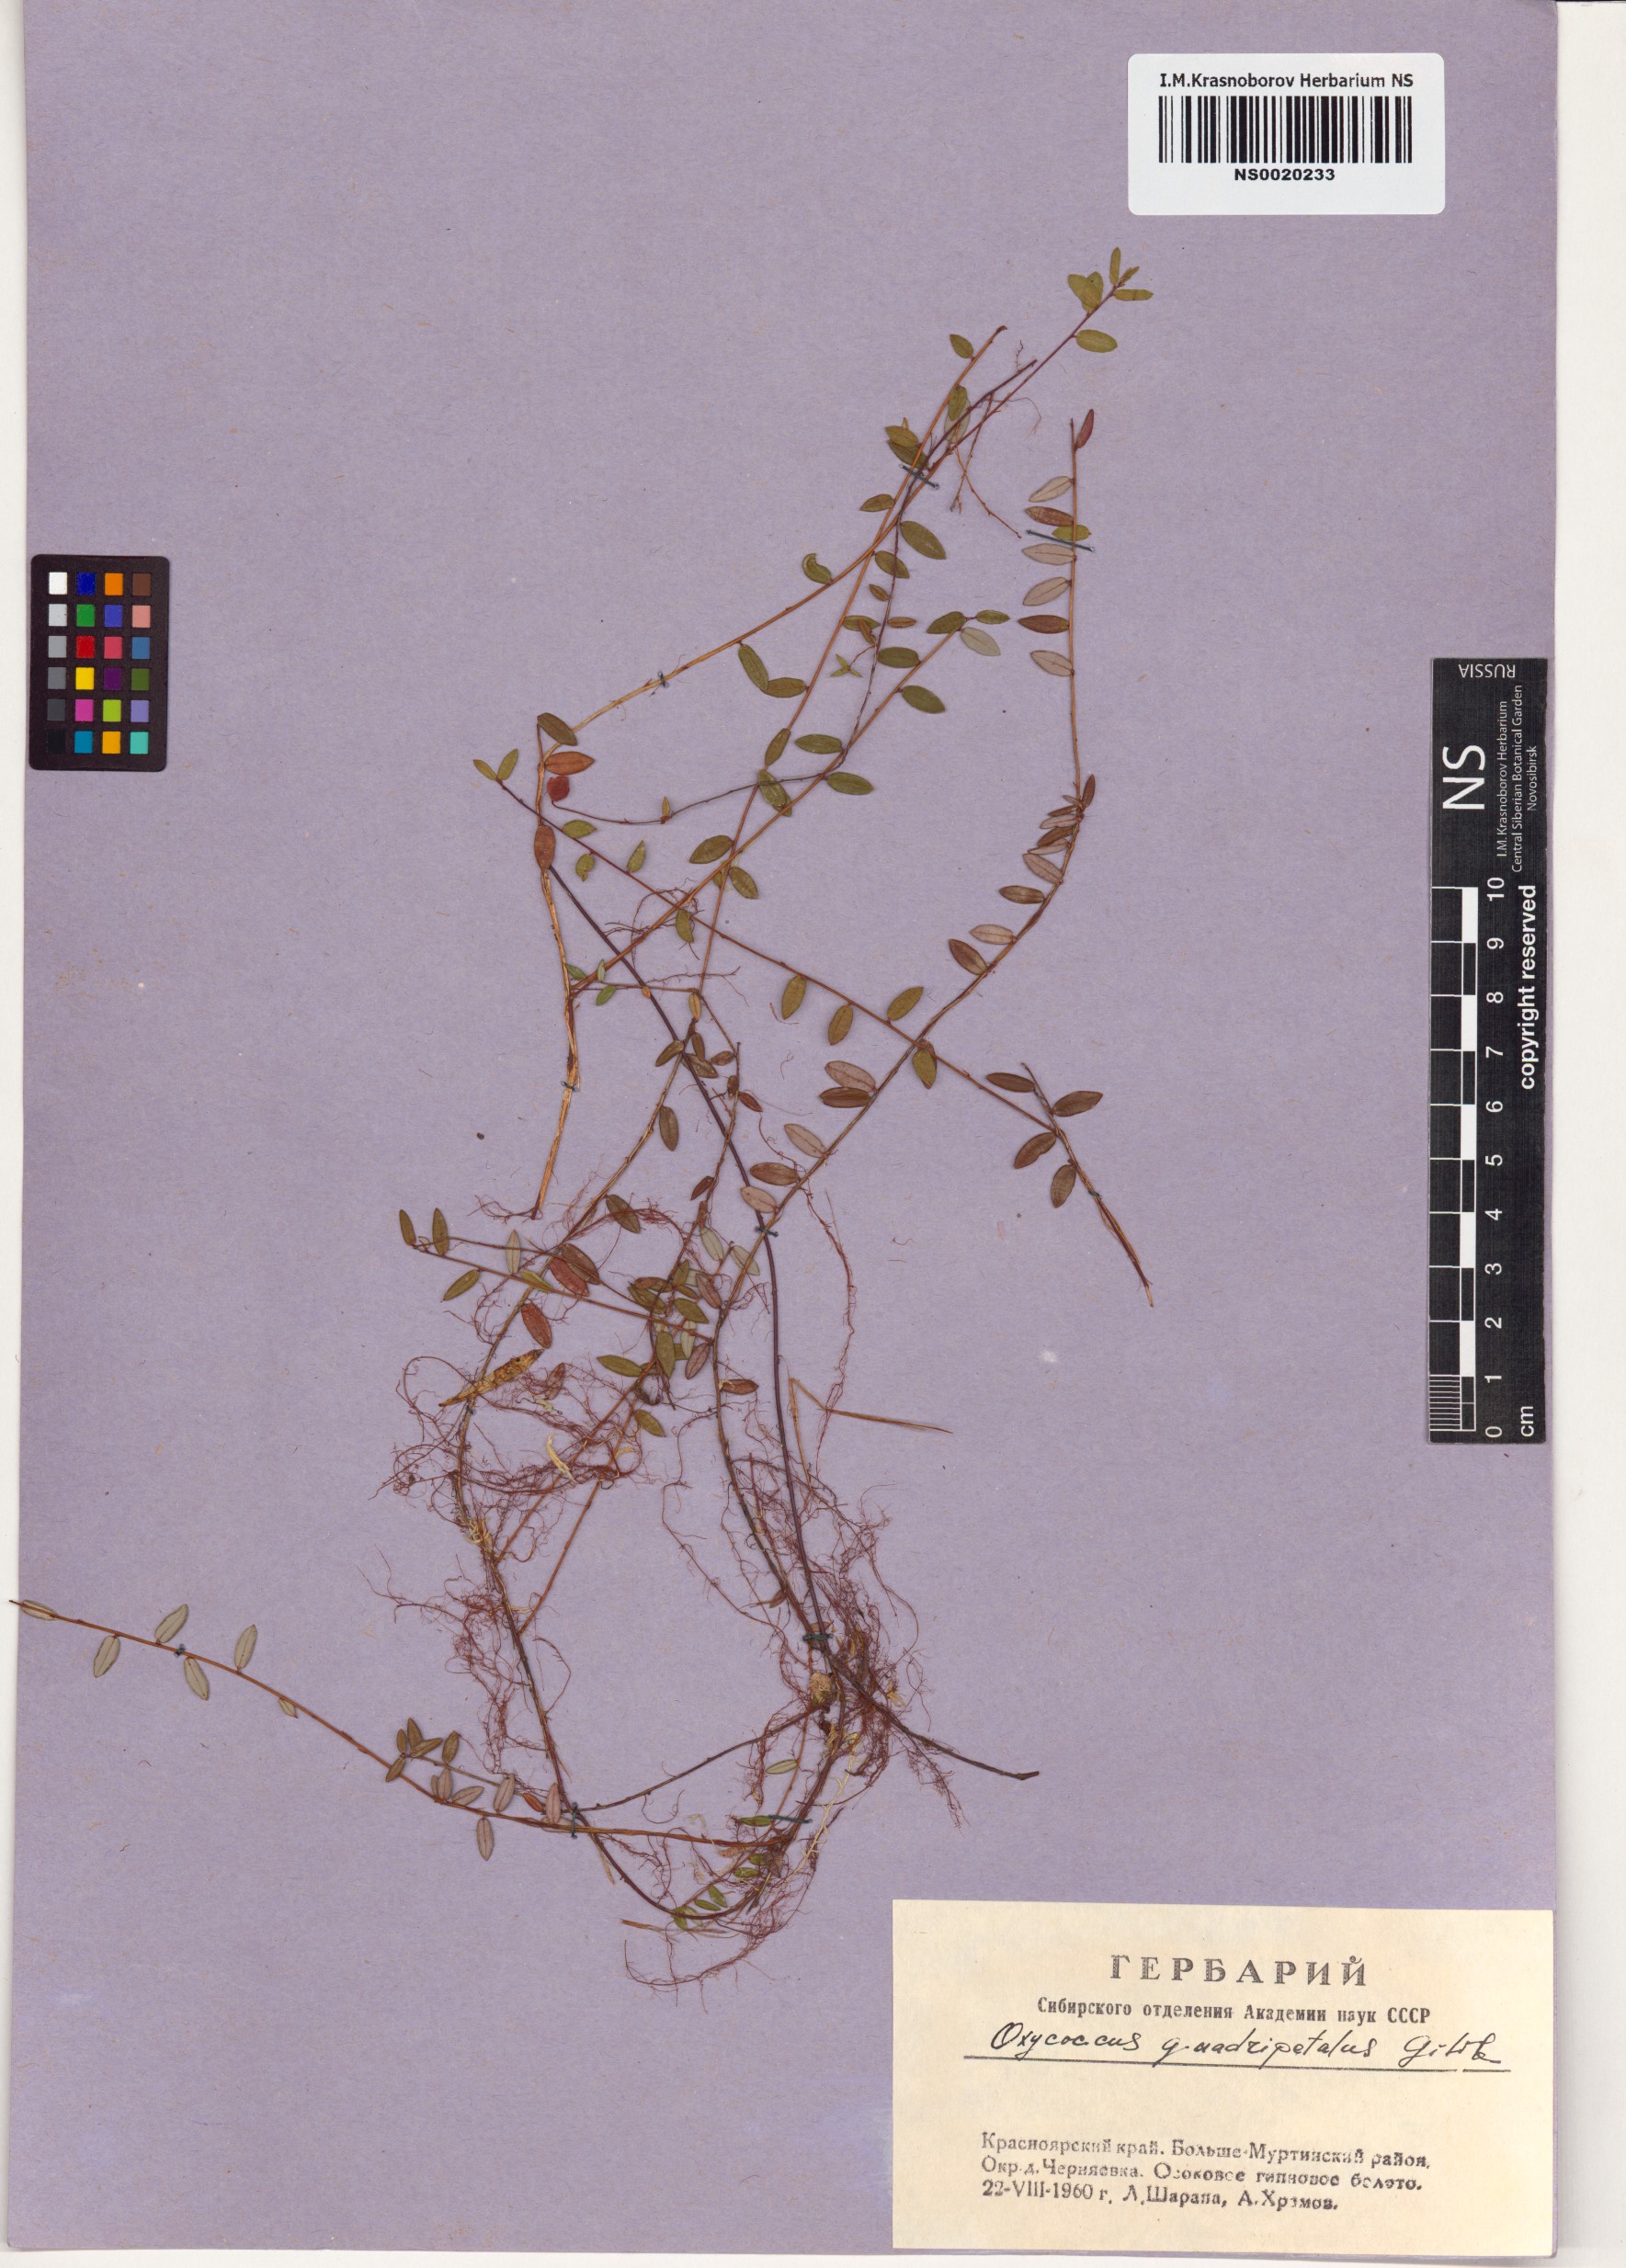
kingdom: Plantae
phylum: Tracheophyta
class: Magnoliopsida
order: Ericales
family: Ericaceae
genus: Vaccinium
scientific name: Vaccinium oxycoccos
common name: Cranberry
